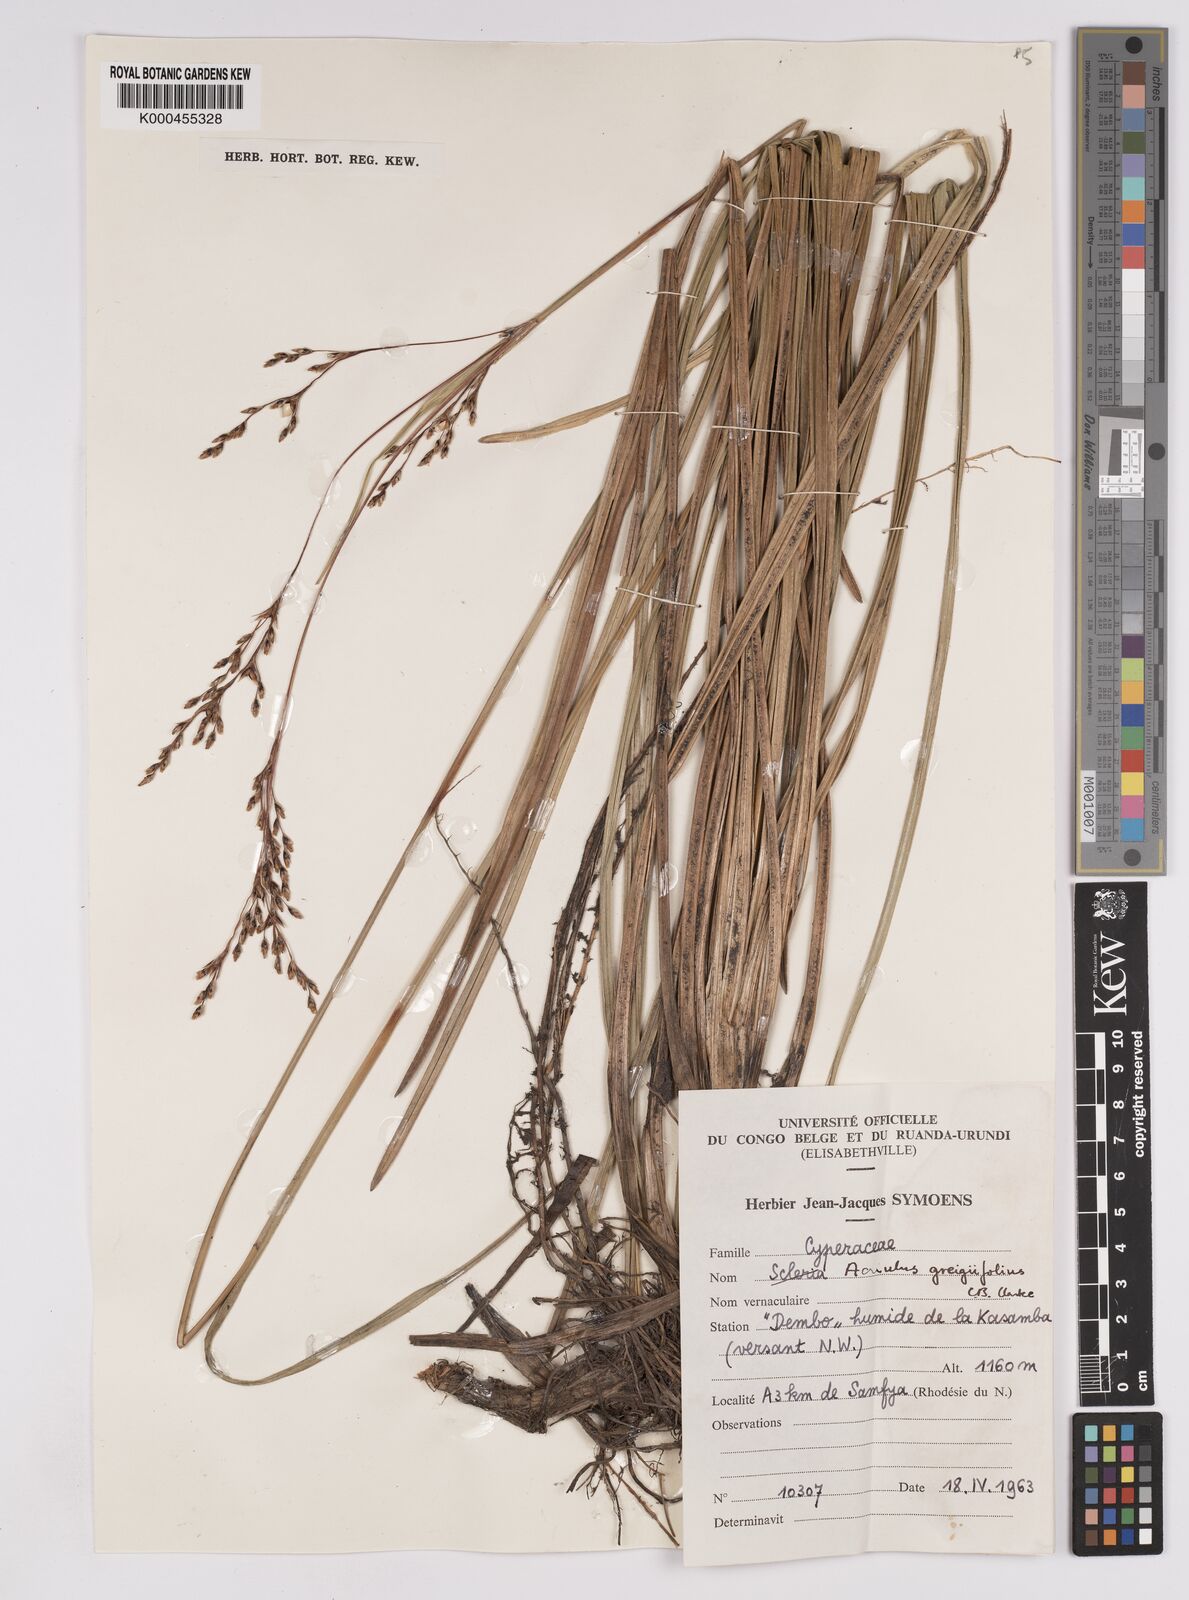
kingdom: Plantae
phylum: Tracheophyta
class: Liliopsida
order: Poales
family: Cyperaceae
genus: Scleria
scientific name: Scleria greigiifolia
